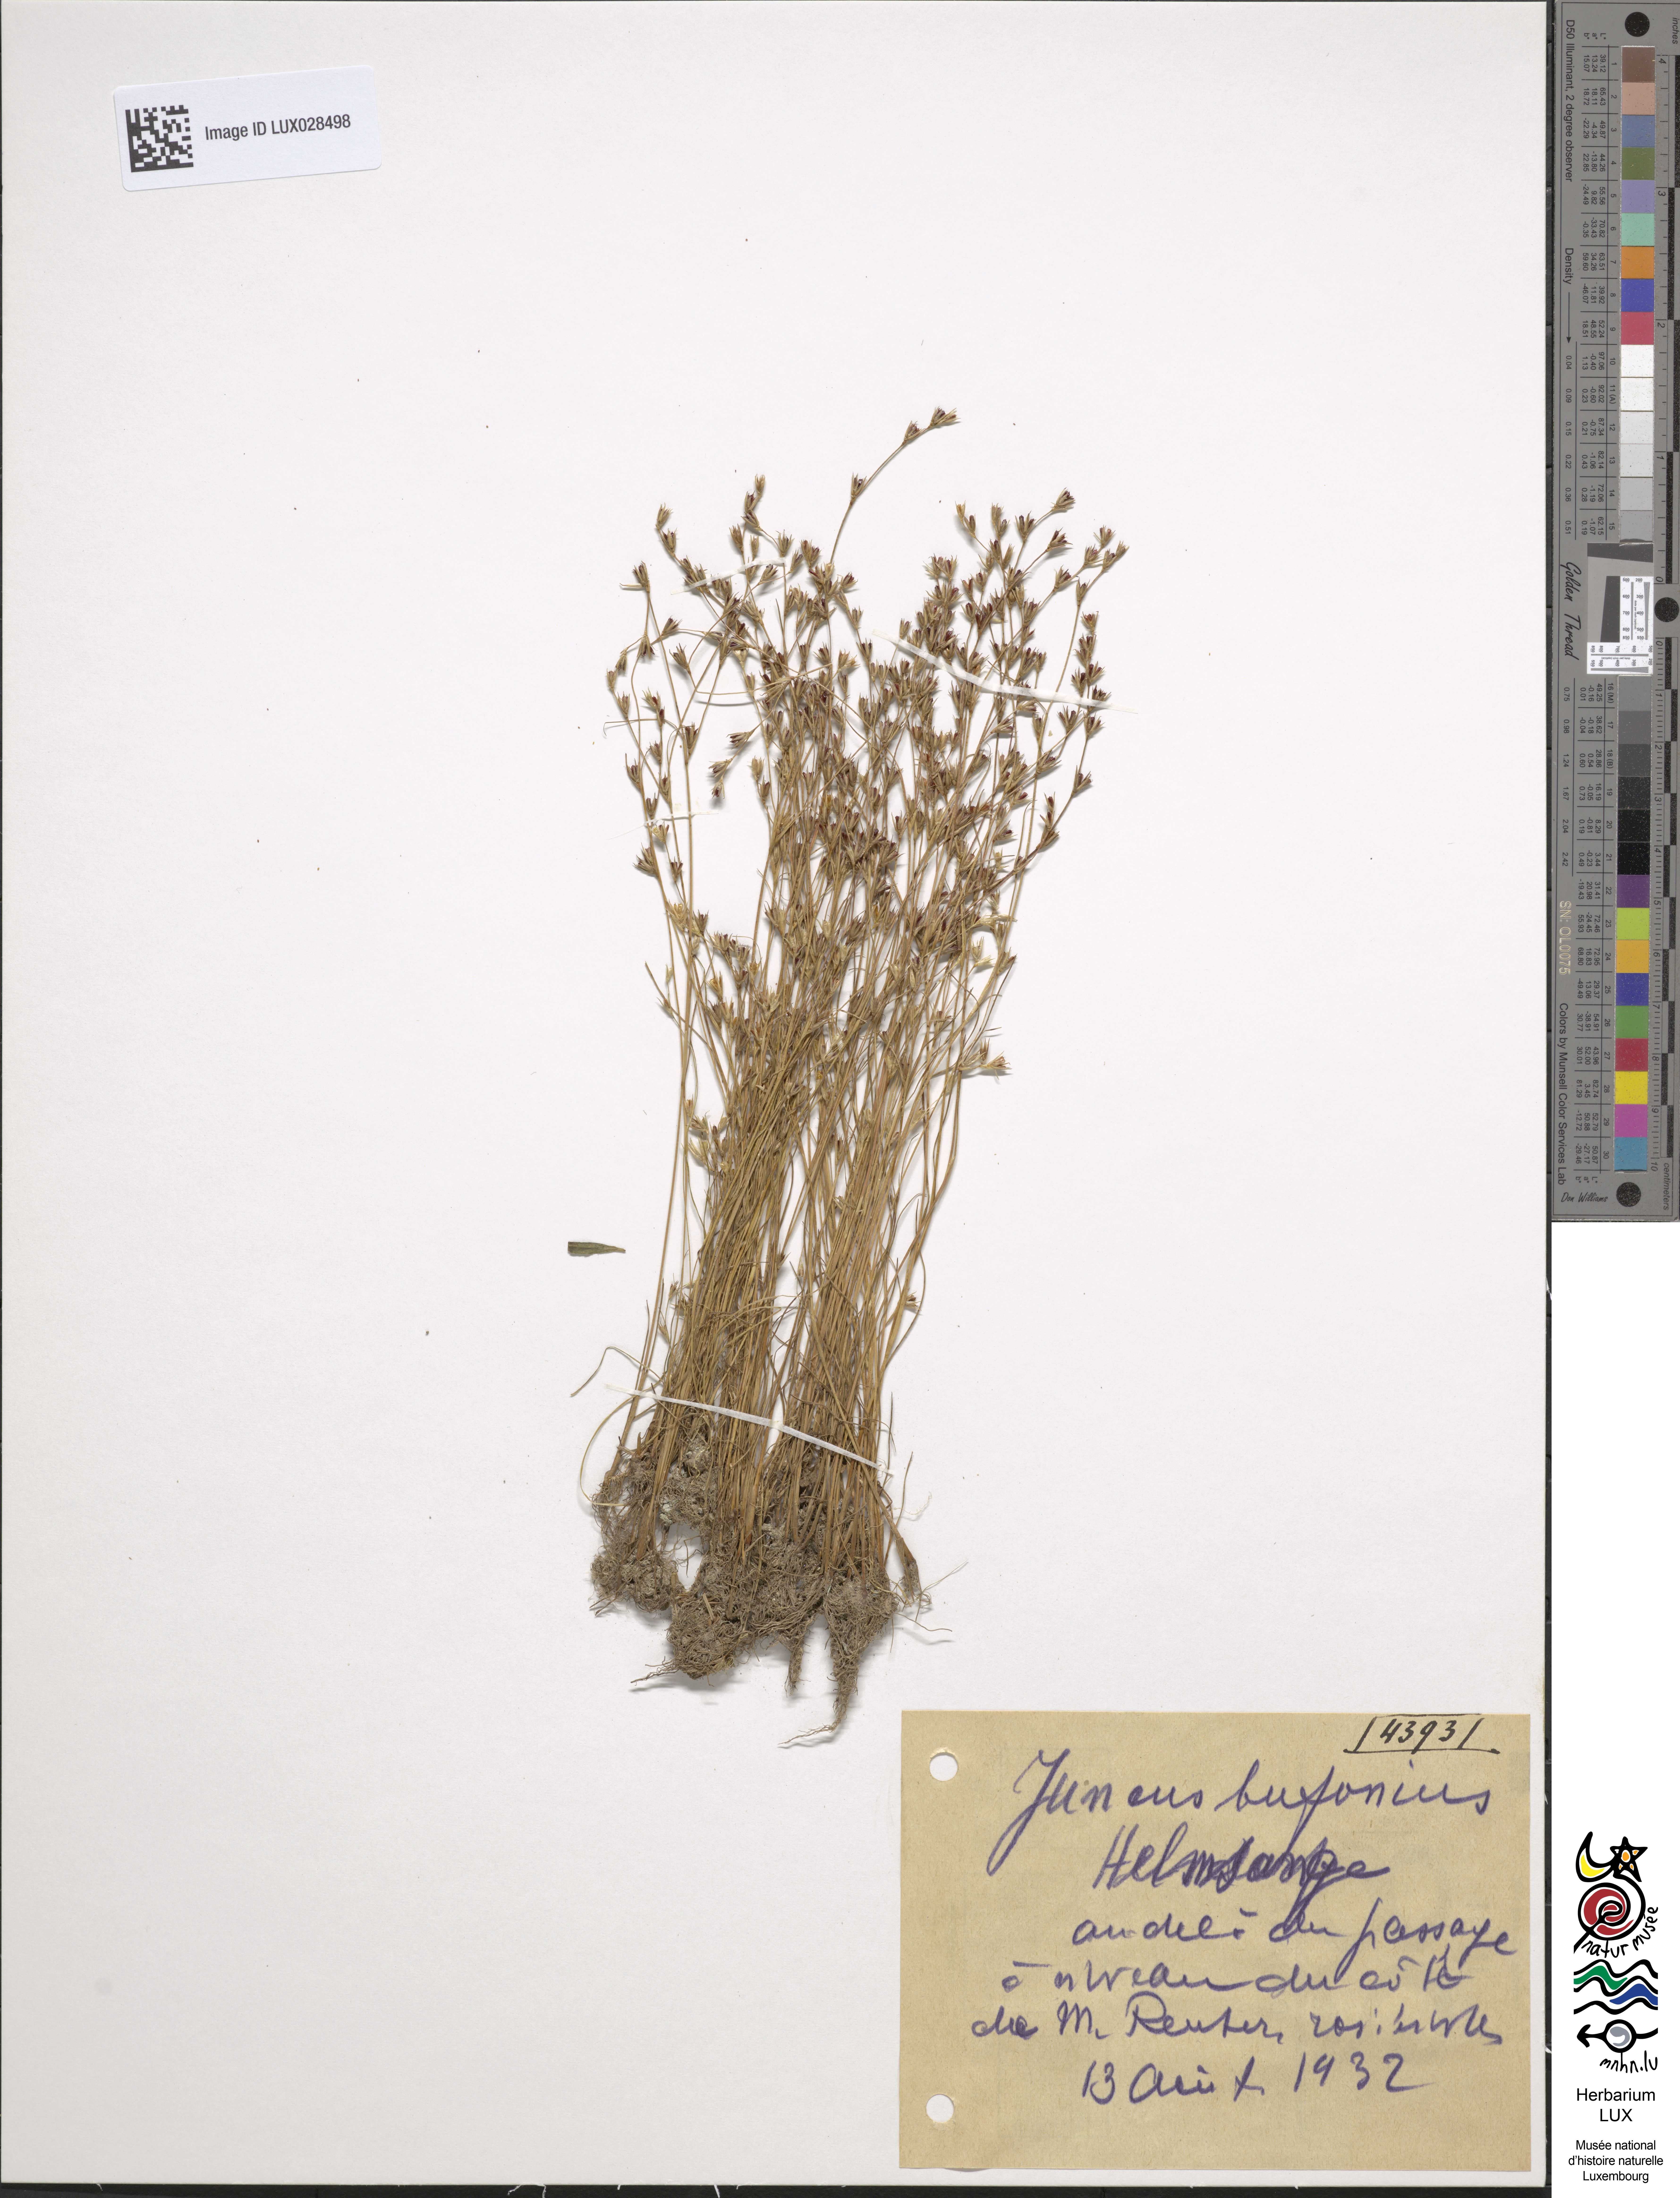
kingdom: Plantae
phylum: Tracheophyta
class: Liliopsida
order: Poales
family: Juncaceae
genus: Juncus
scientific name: Juncus bufonius
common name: Toad rush
